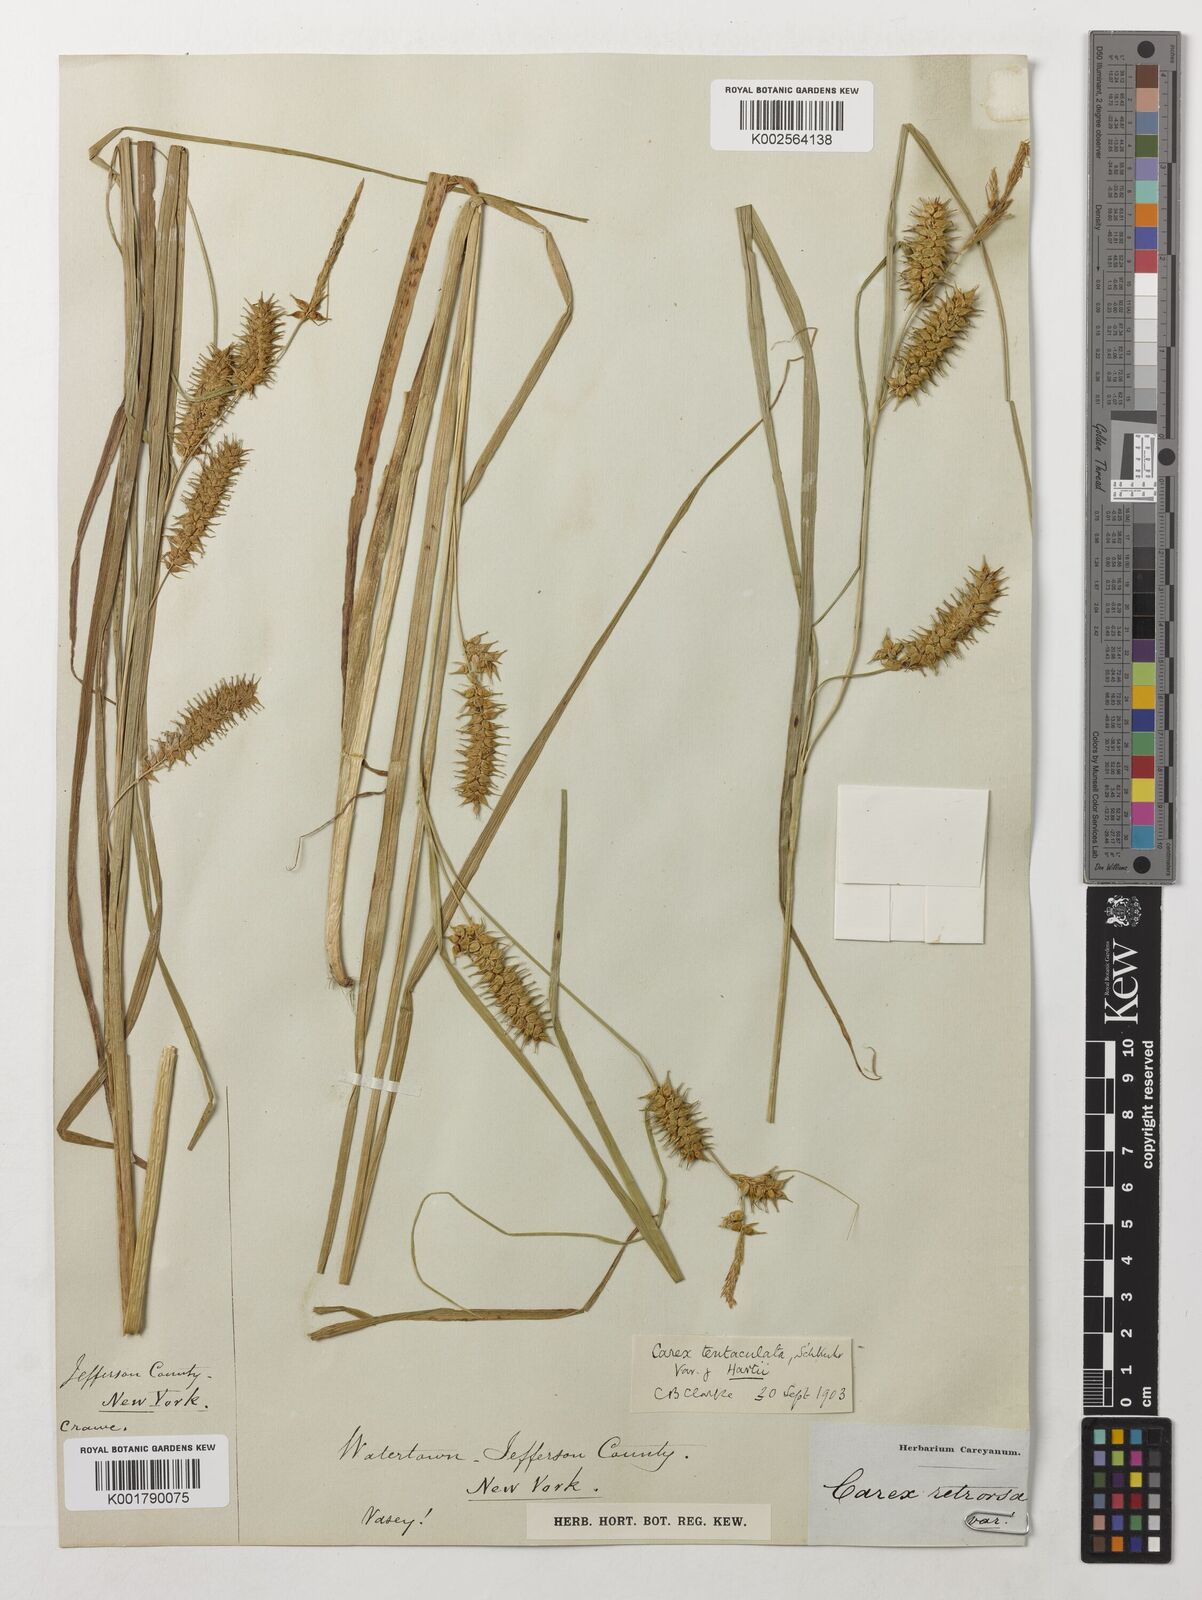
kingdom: Plantae
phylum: Tracheophyta
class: Liliopsida
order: Poales
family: Cyperaceae
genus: Carex
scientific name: Carex retrorsa
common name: Knot-sheath sedge
